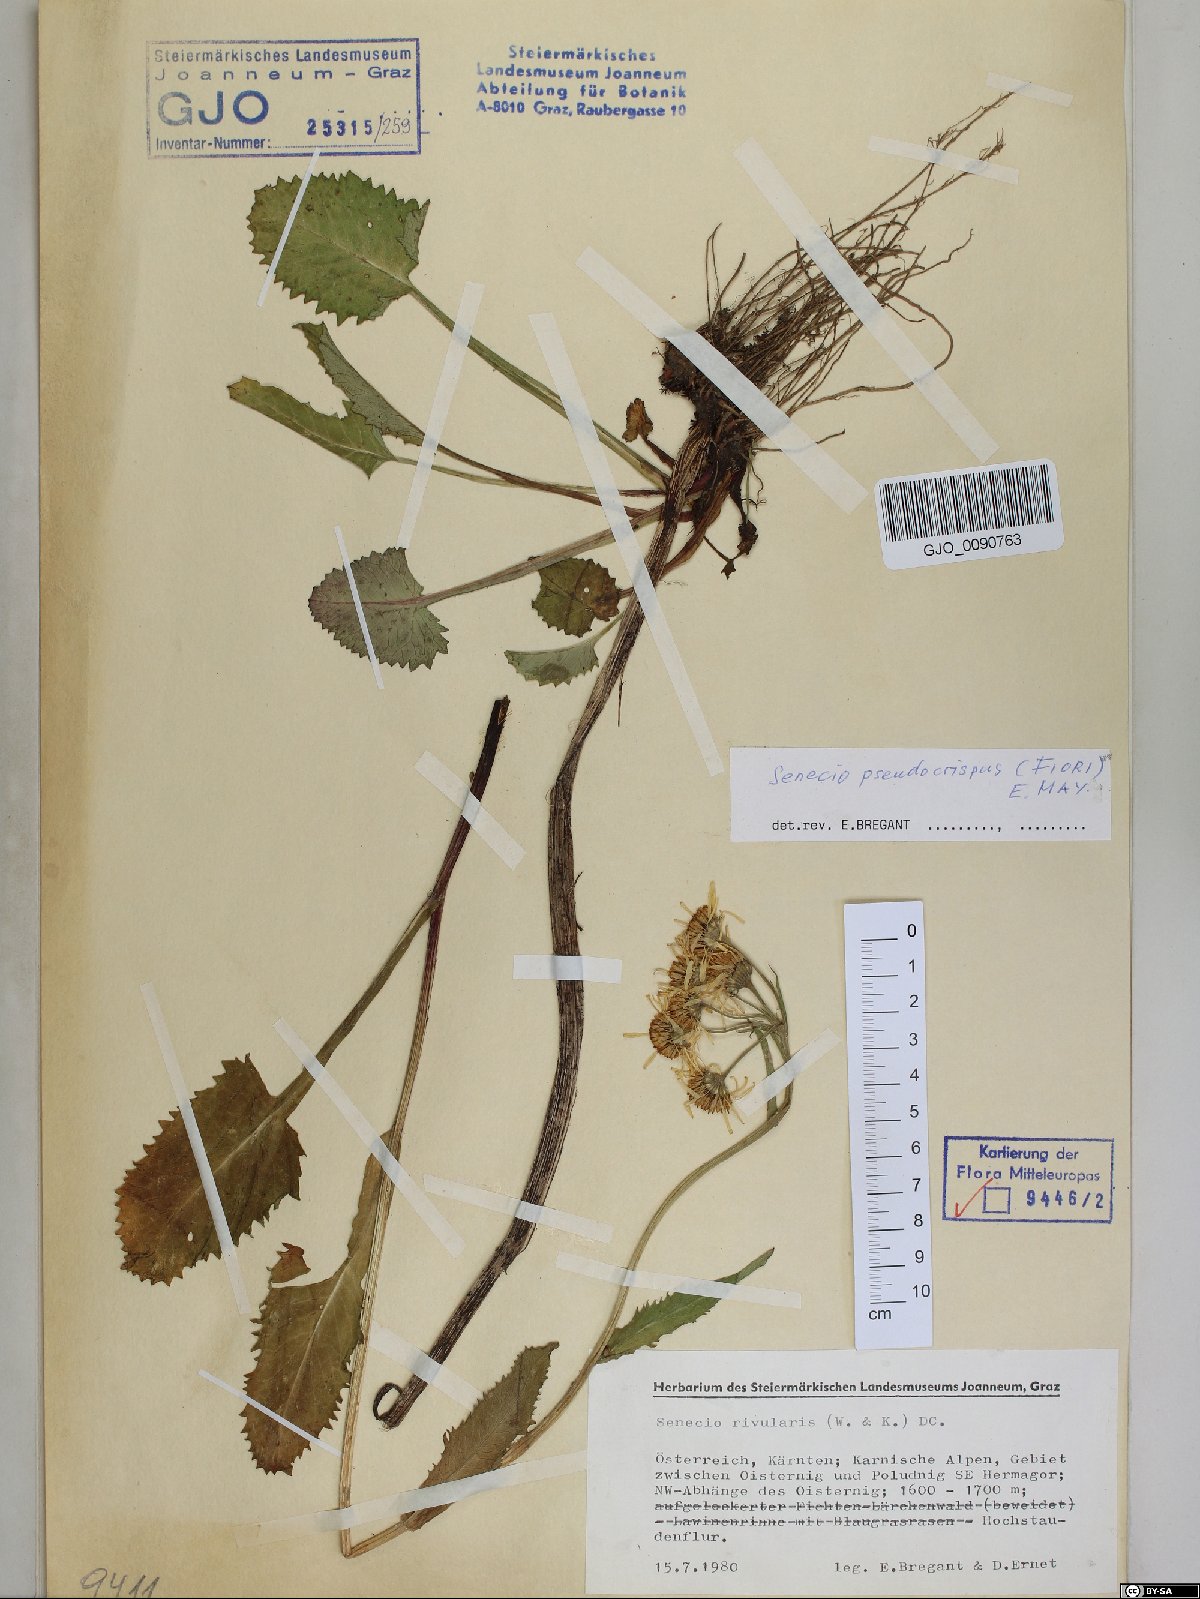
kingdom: Plantae
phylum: Tracheophyta
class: Magnoliopsida
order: Asterales
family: Asteraceae
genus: Tephroseris
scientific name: Tephroseris longifolia
